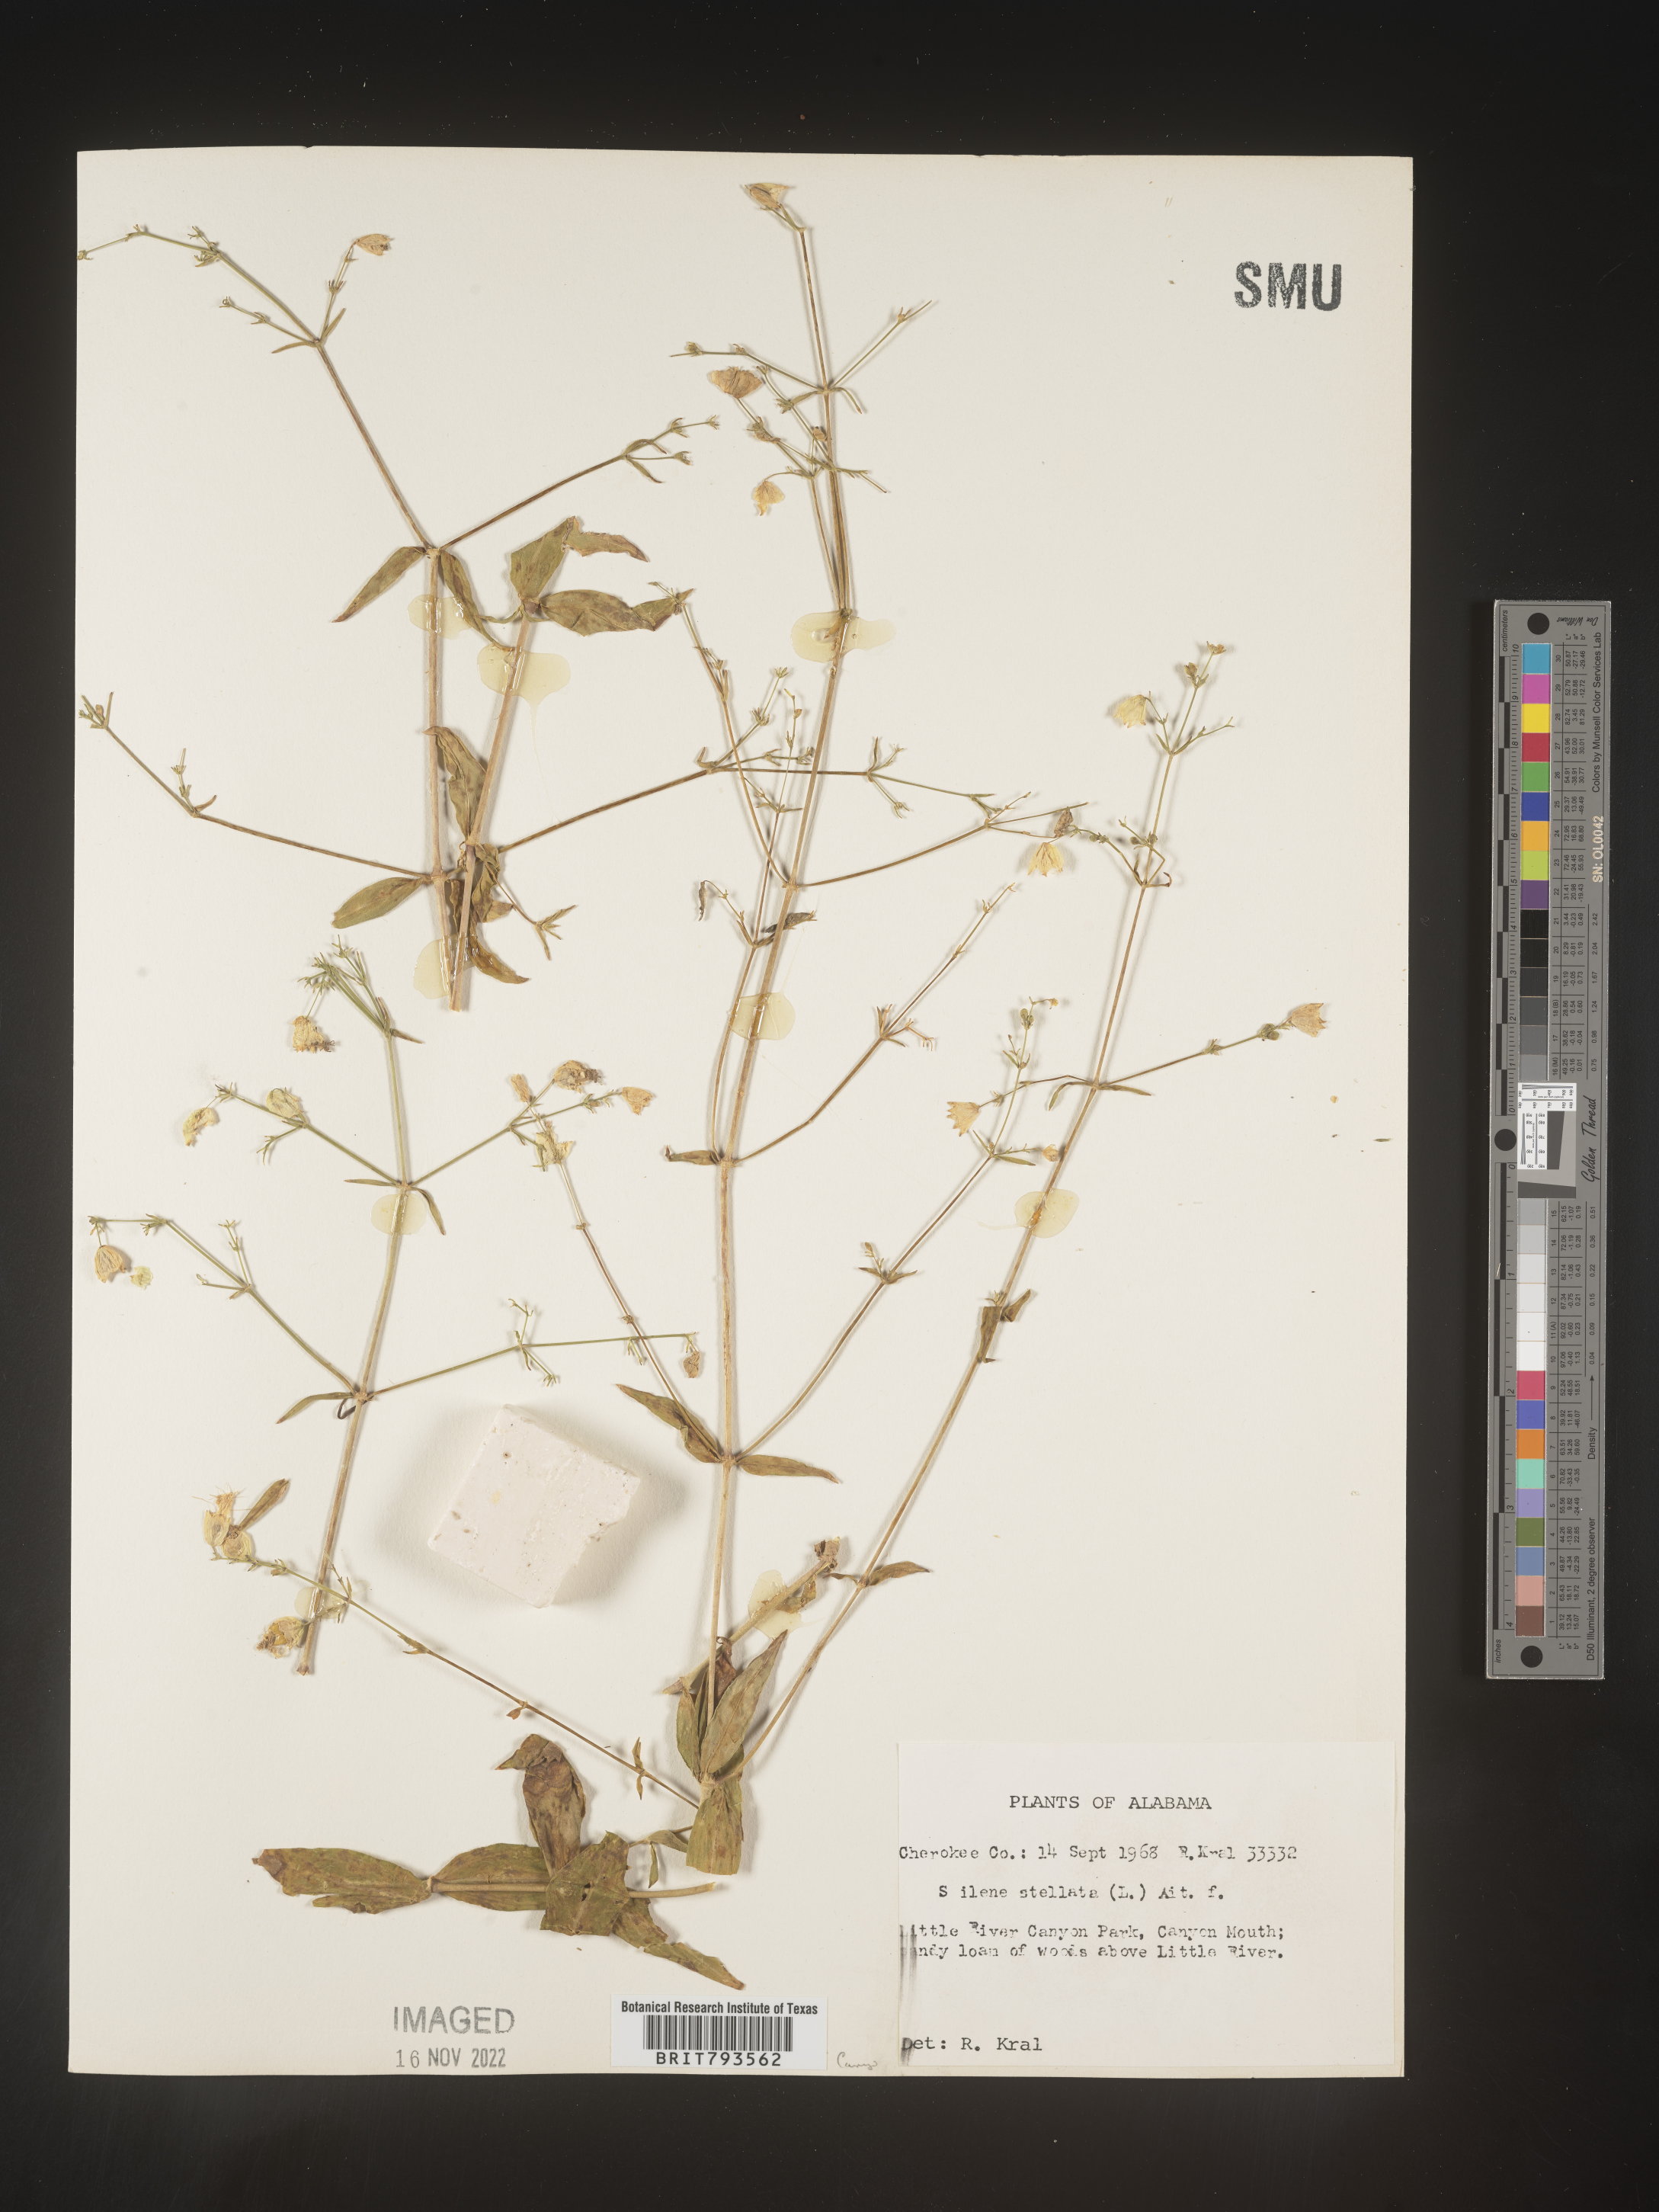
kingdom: Plantae
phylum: Tracheophyta
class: Magnoliopsida
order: Caryophyllales
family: Caryophyllaceae
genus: Silene
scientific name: Silene stellata
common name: Starry campion
